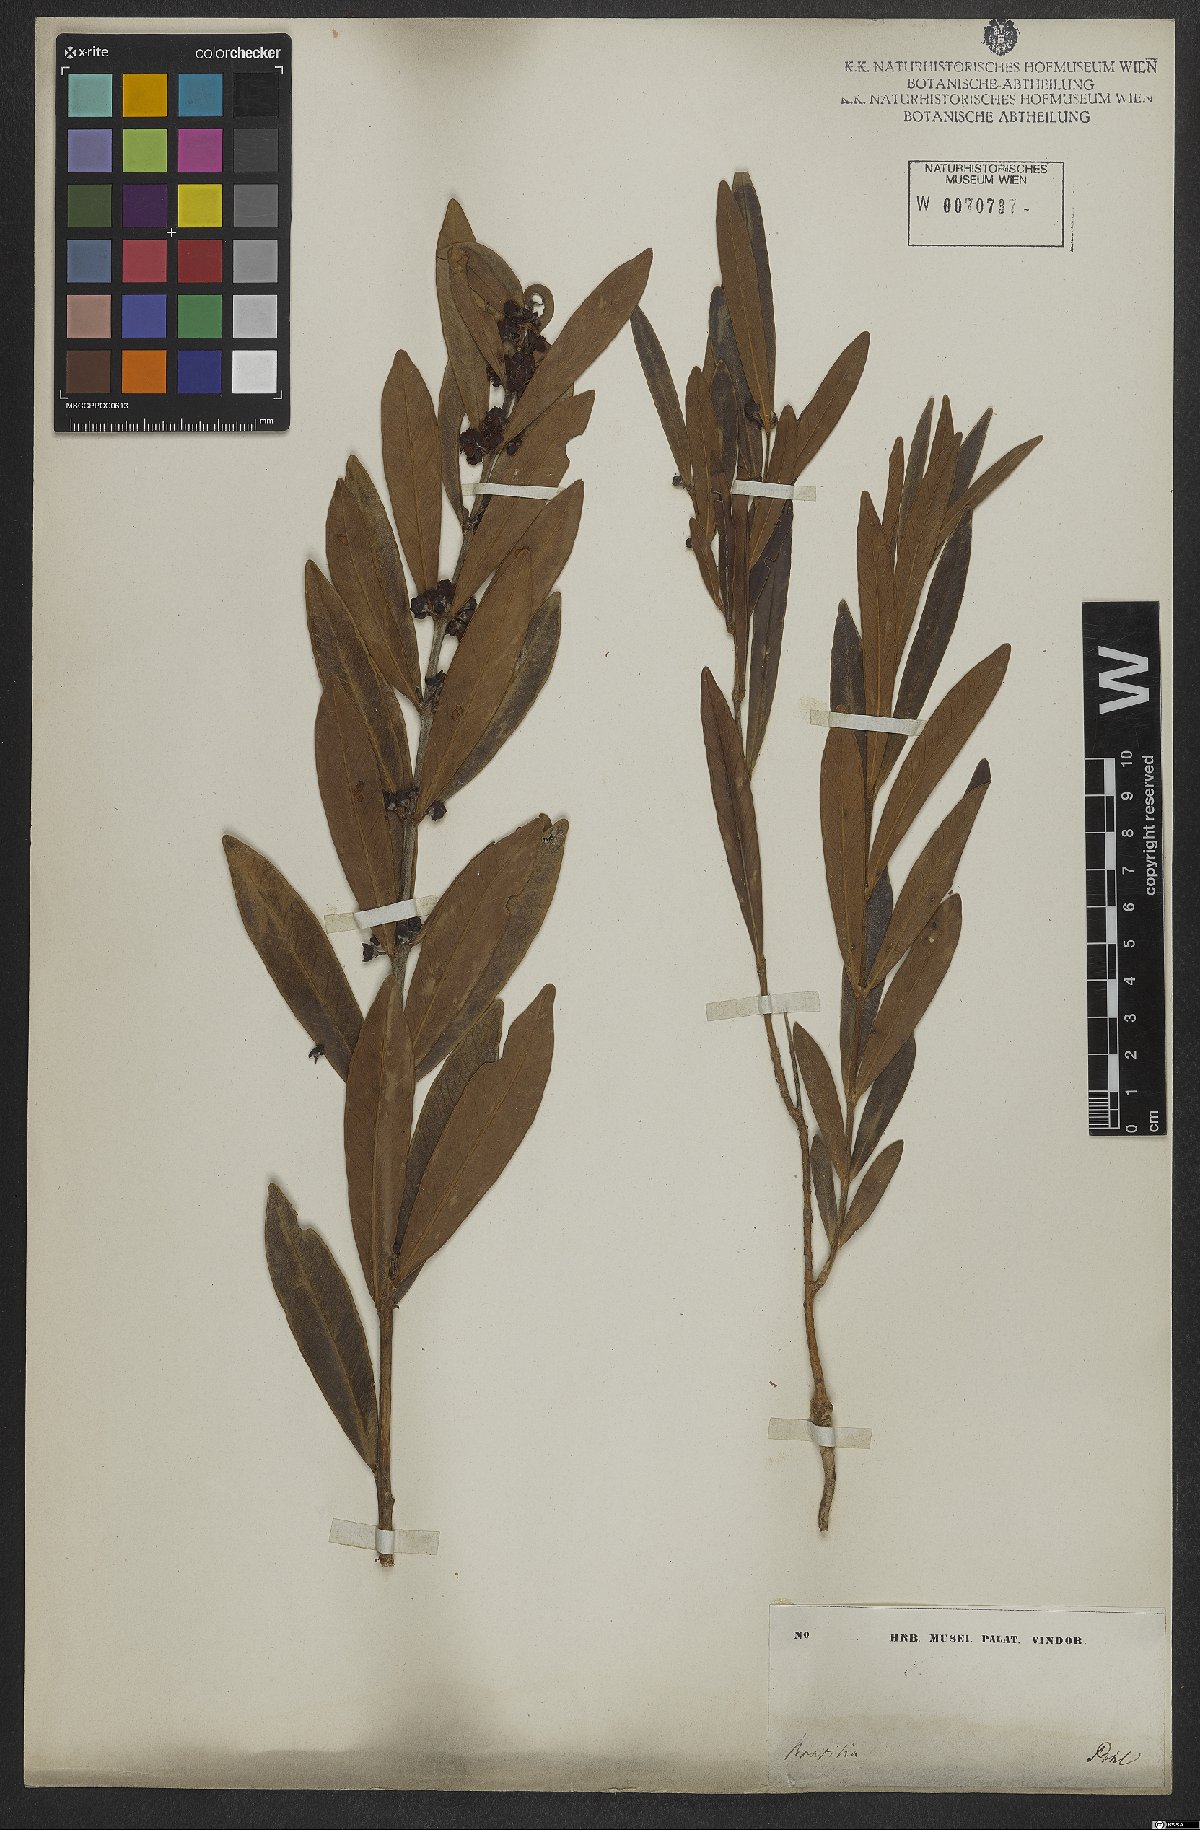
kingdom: Plantae
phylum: Tracheophyta
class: Magnoliopsida
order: Myrtales
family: Myrtaceae
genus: Eugenia
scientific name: Eugenia punicifolia
